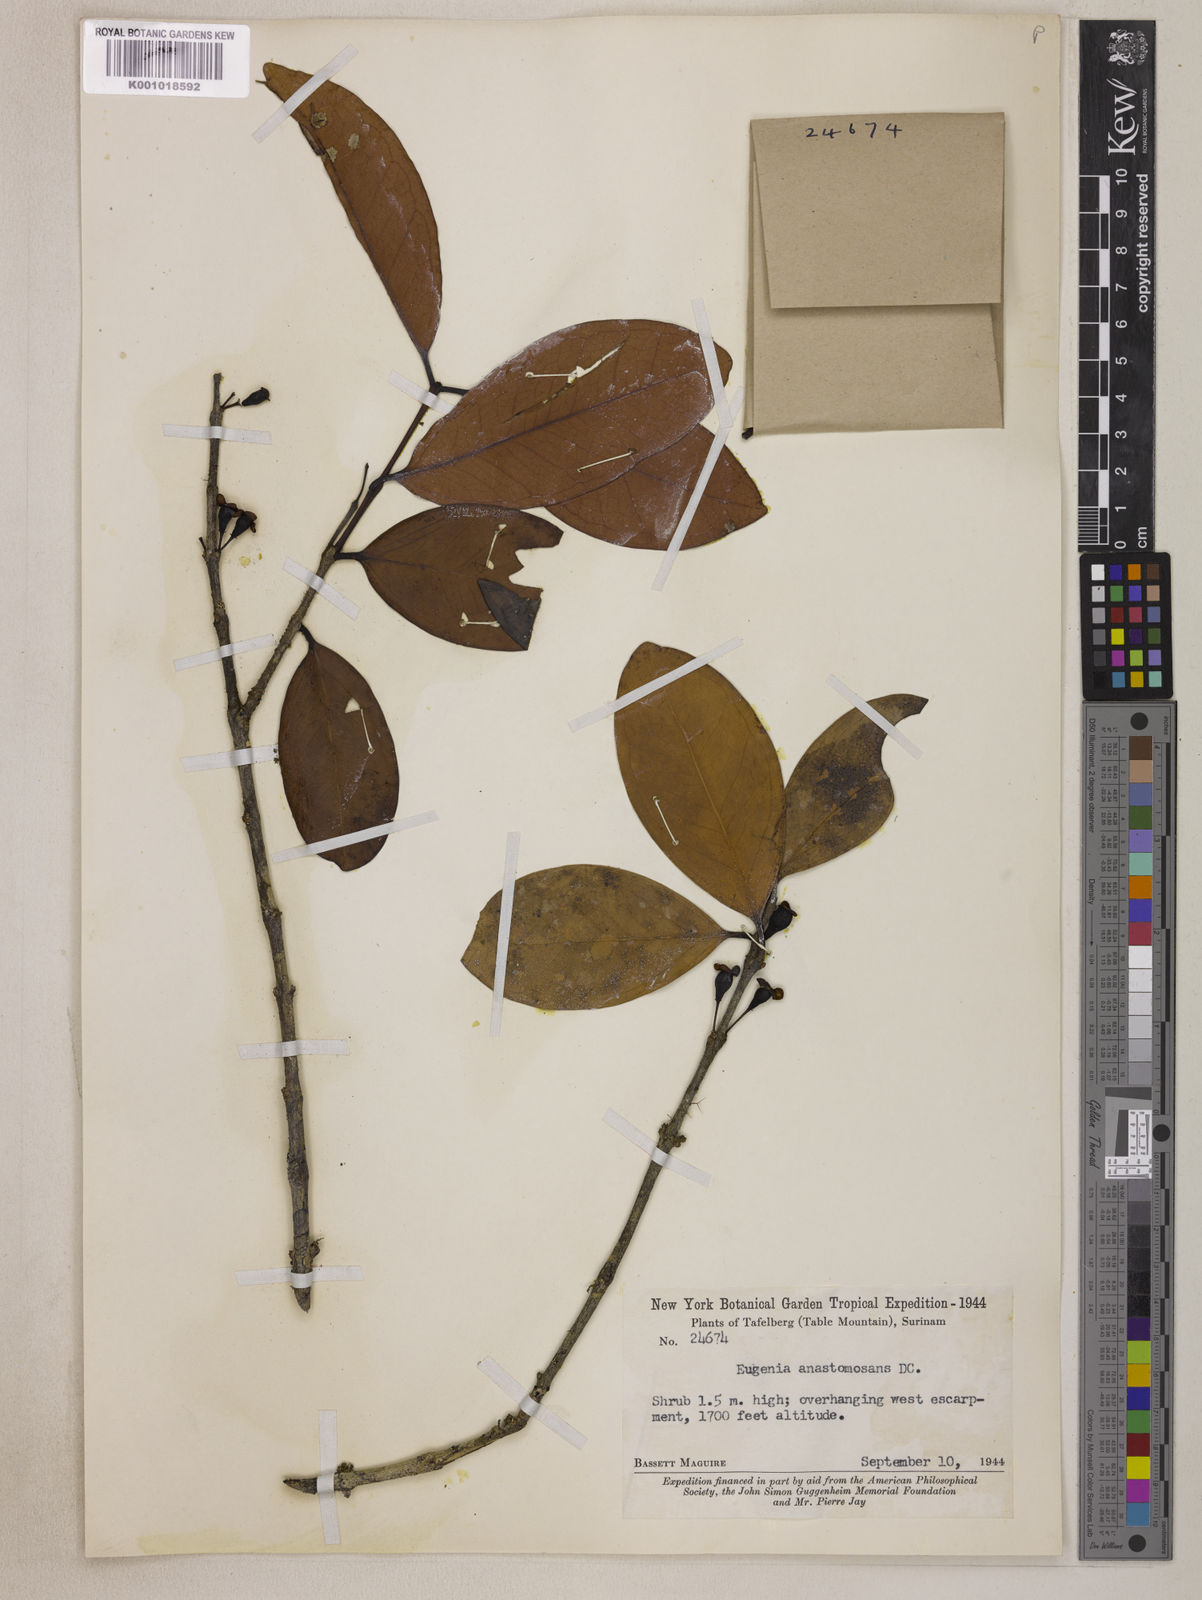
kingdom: Plantae
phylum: Tracheophyta
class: Magnoliopsida
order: Myrtales
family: Myrtaceae
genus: Eugenia
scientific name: Eugenia anastomosans
